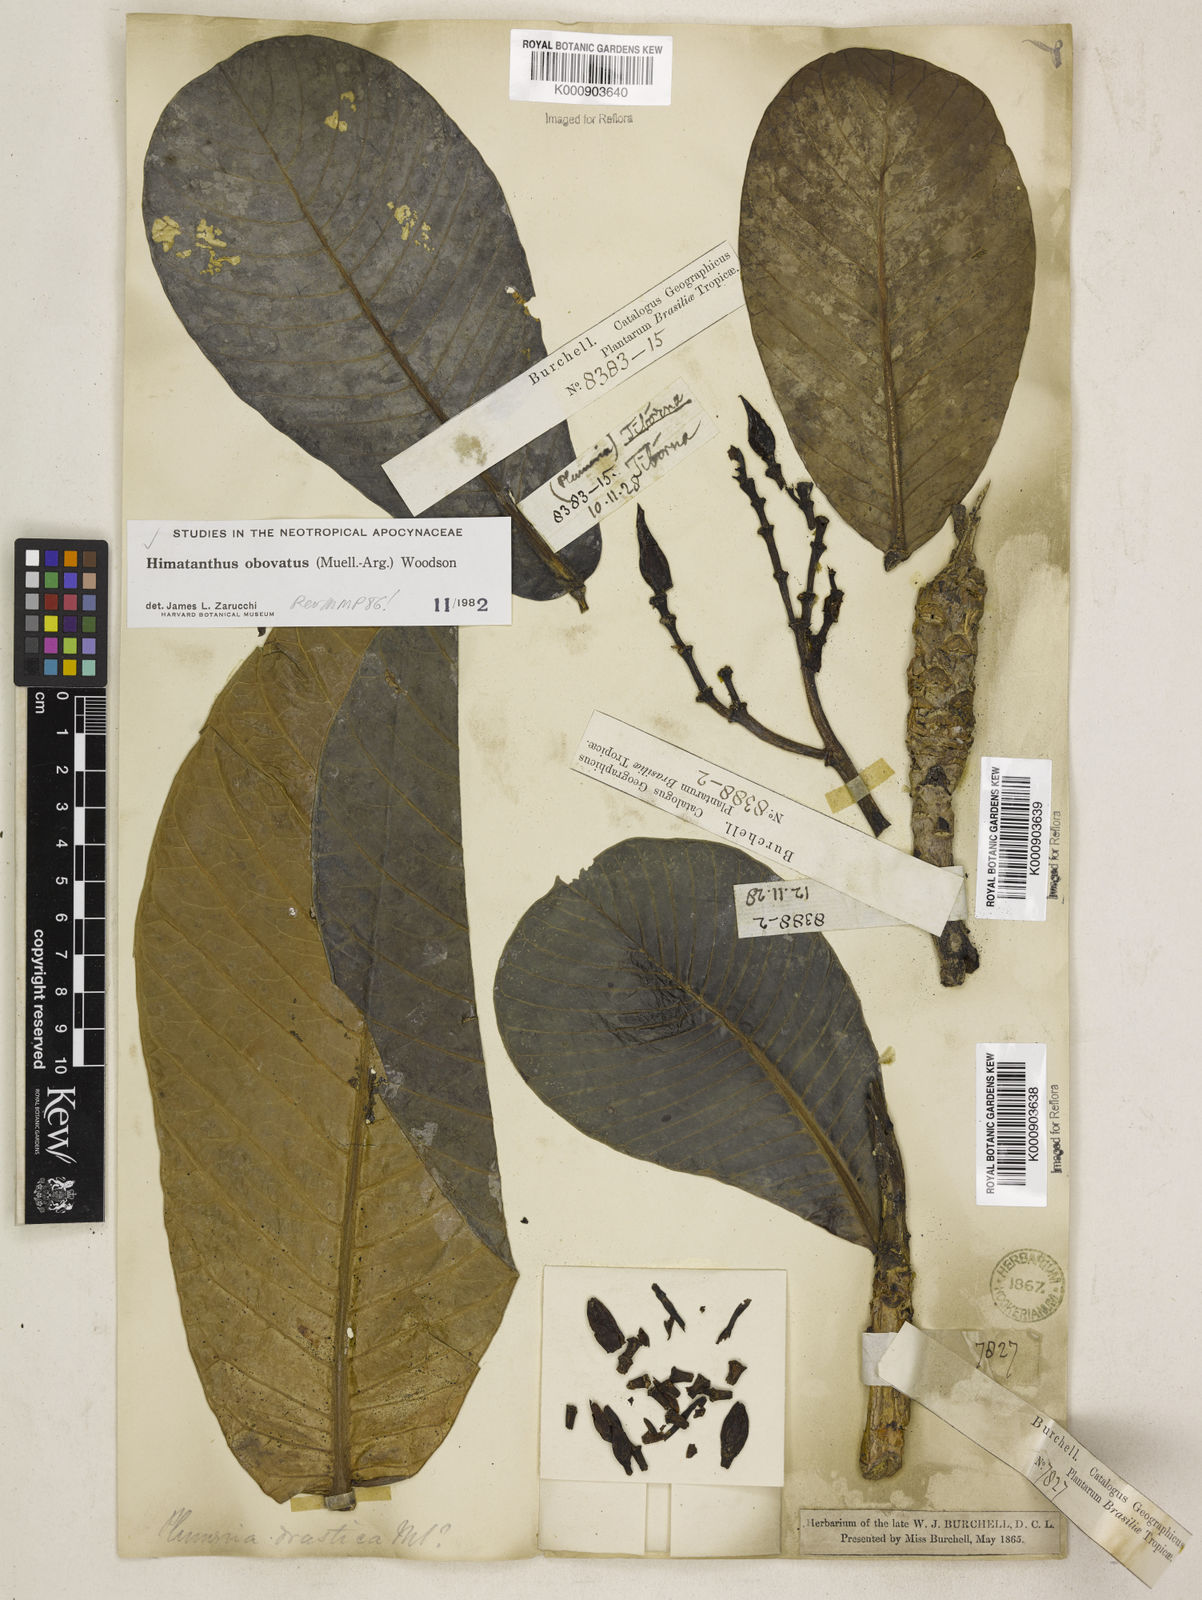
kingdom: Plantae
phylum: Tracheophyta
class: Magnoliopsida
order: Gentianales
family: Apocynaceae
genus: Himatanthus
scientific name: Himatanthus
